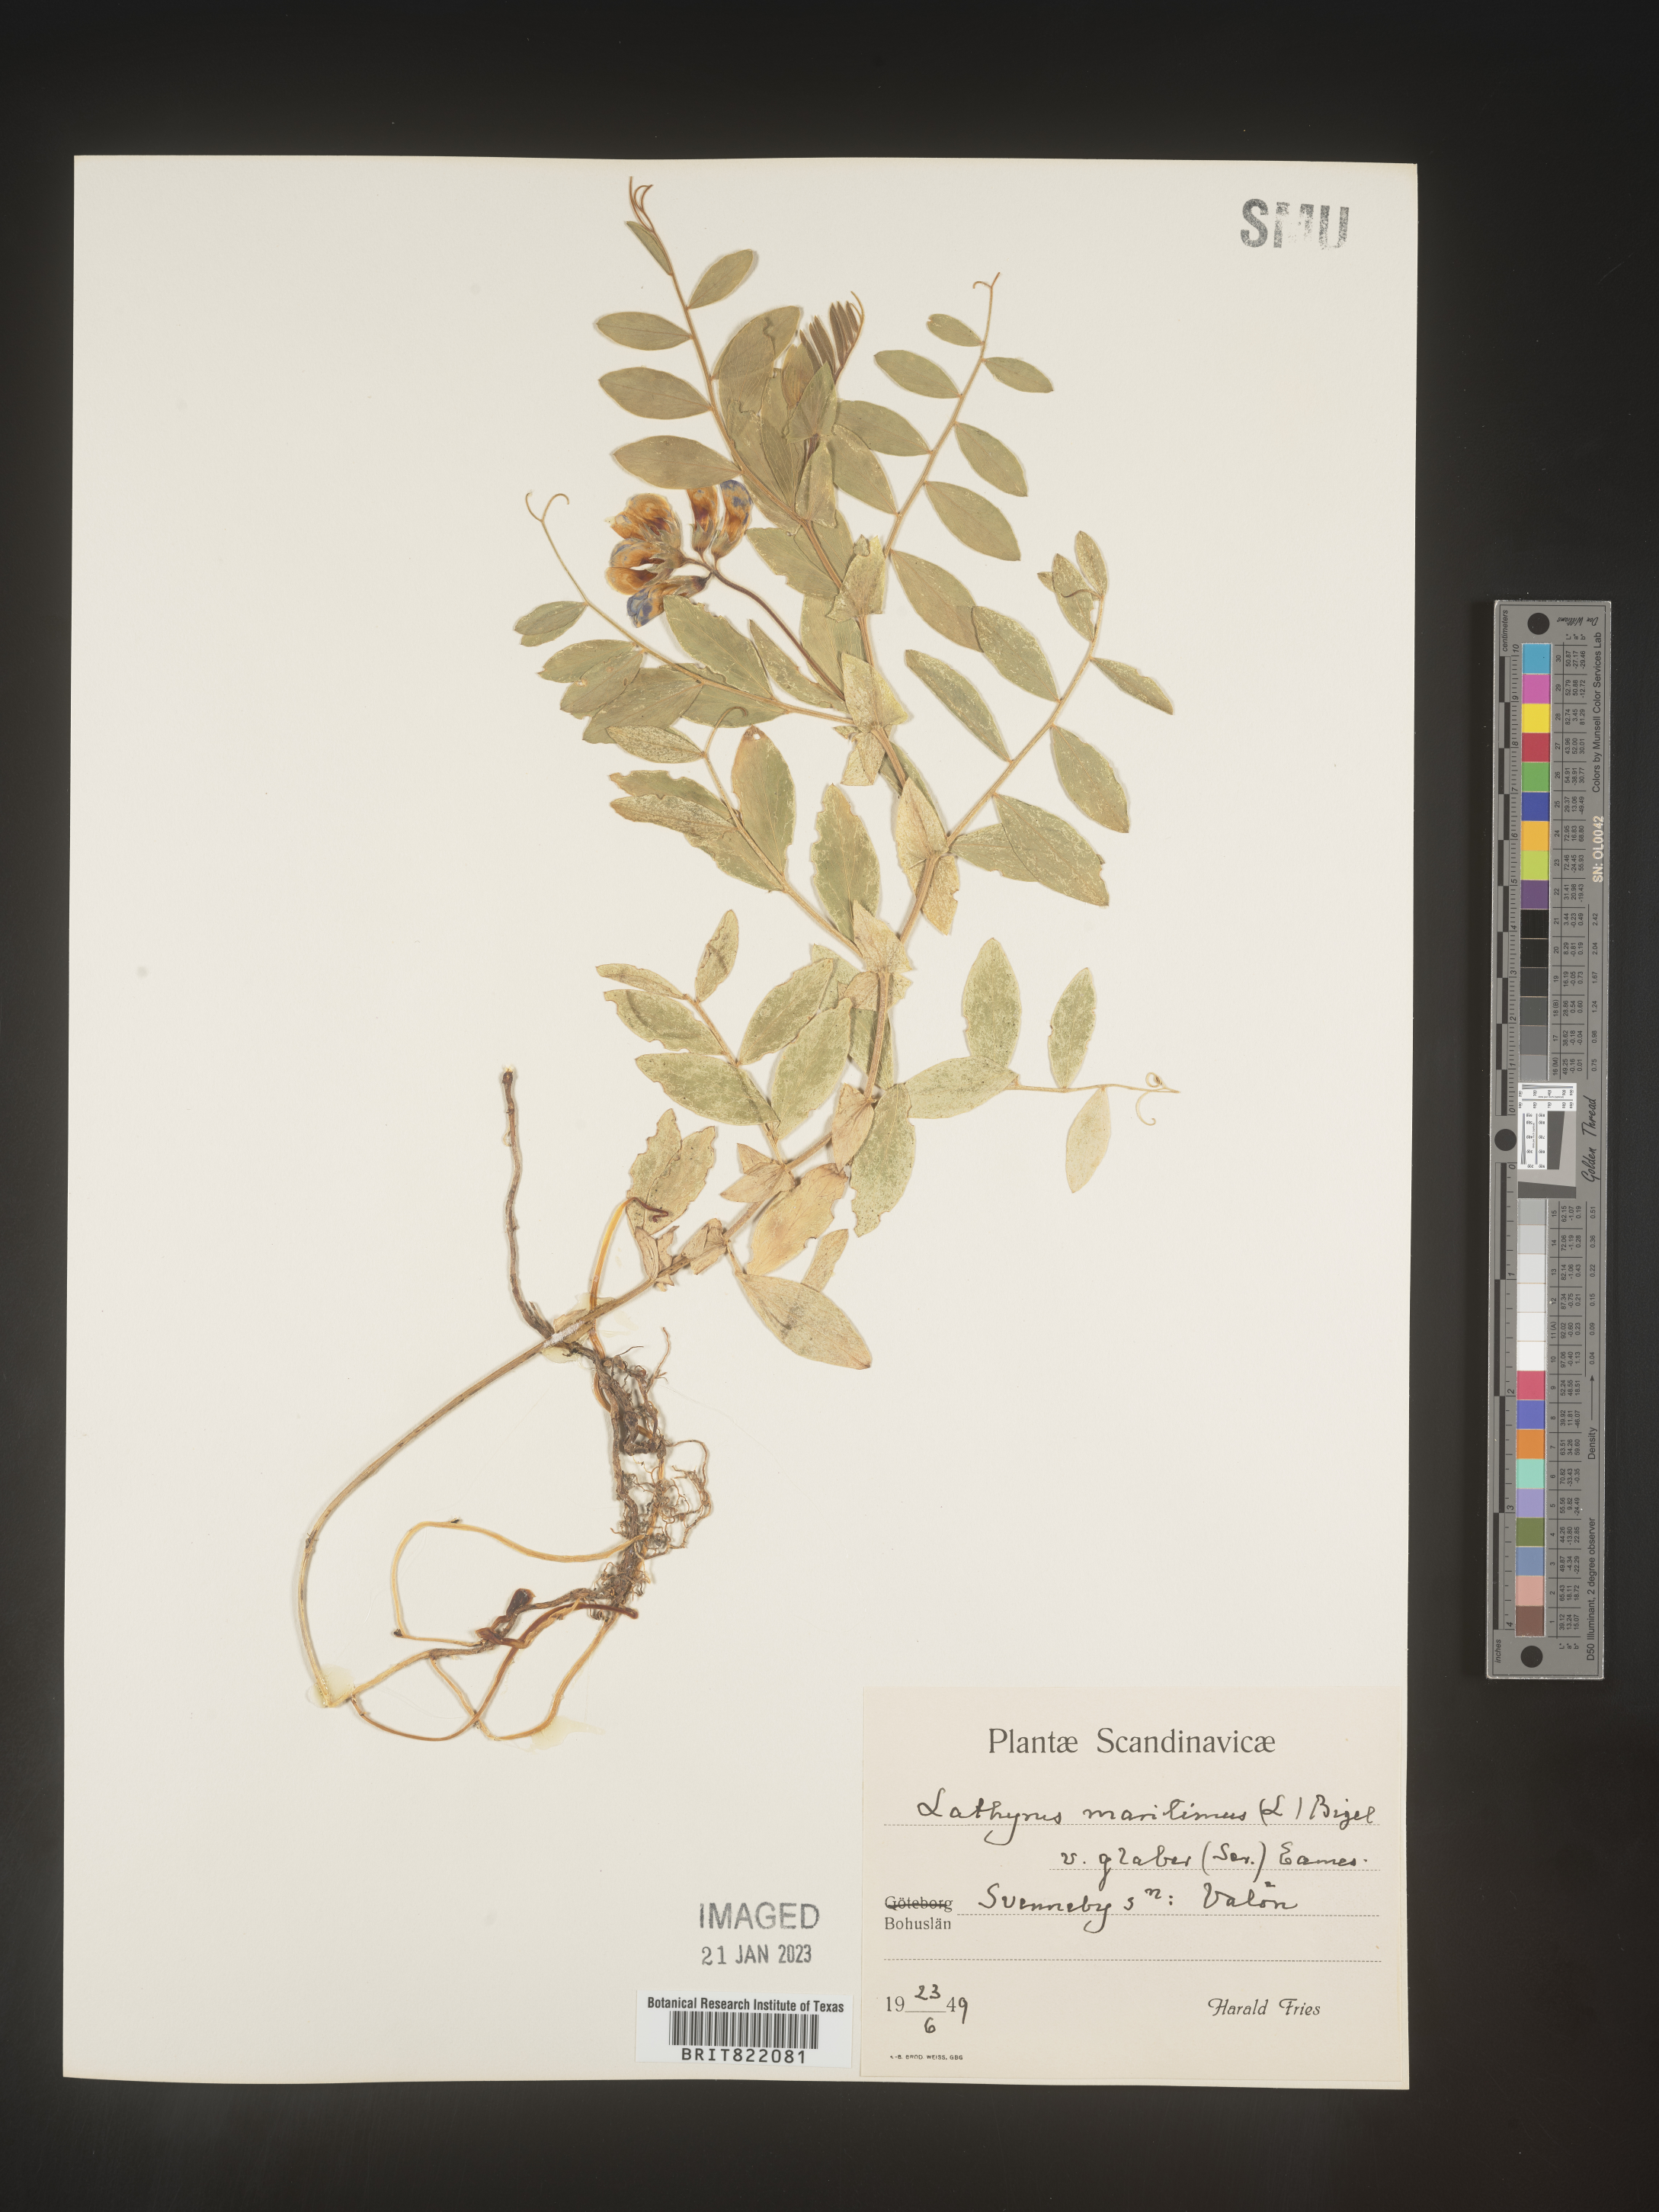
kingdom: Plantae
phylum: Tracheophyta
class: Magnoliopsida
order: Fabales
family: Fabaceae
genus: Lathyrus
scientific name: Lathyrus
